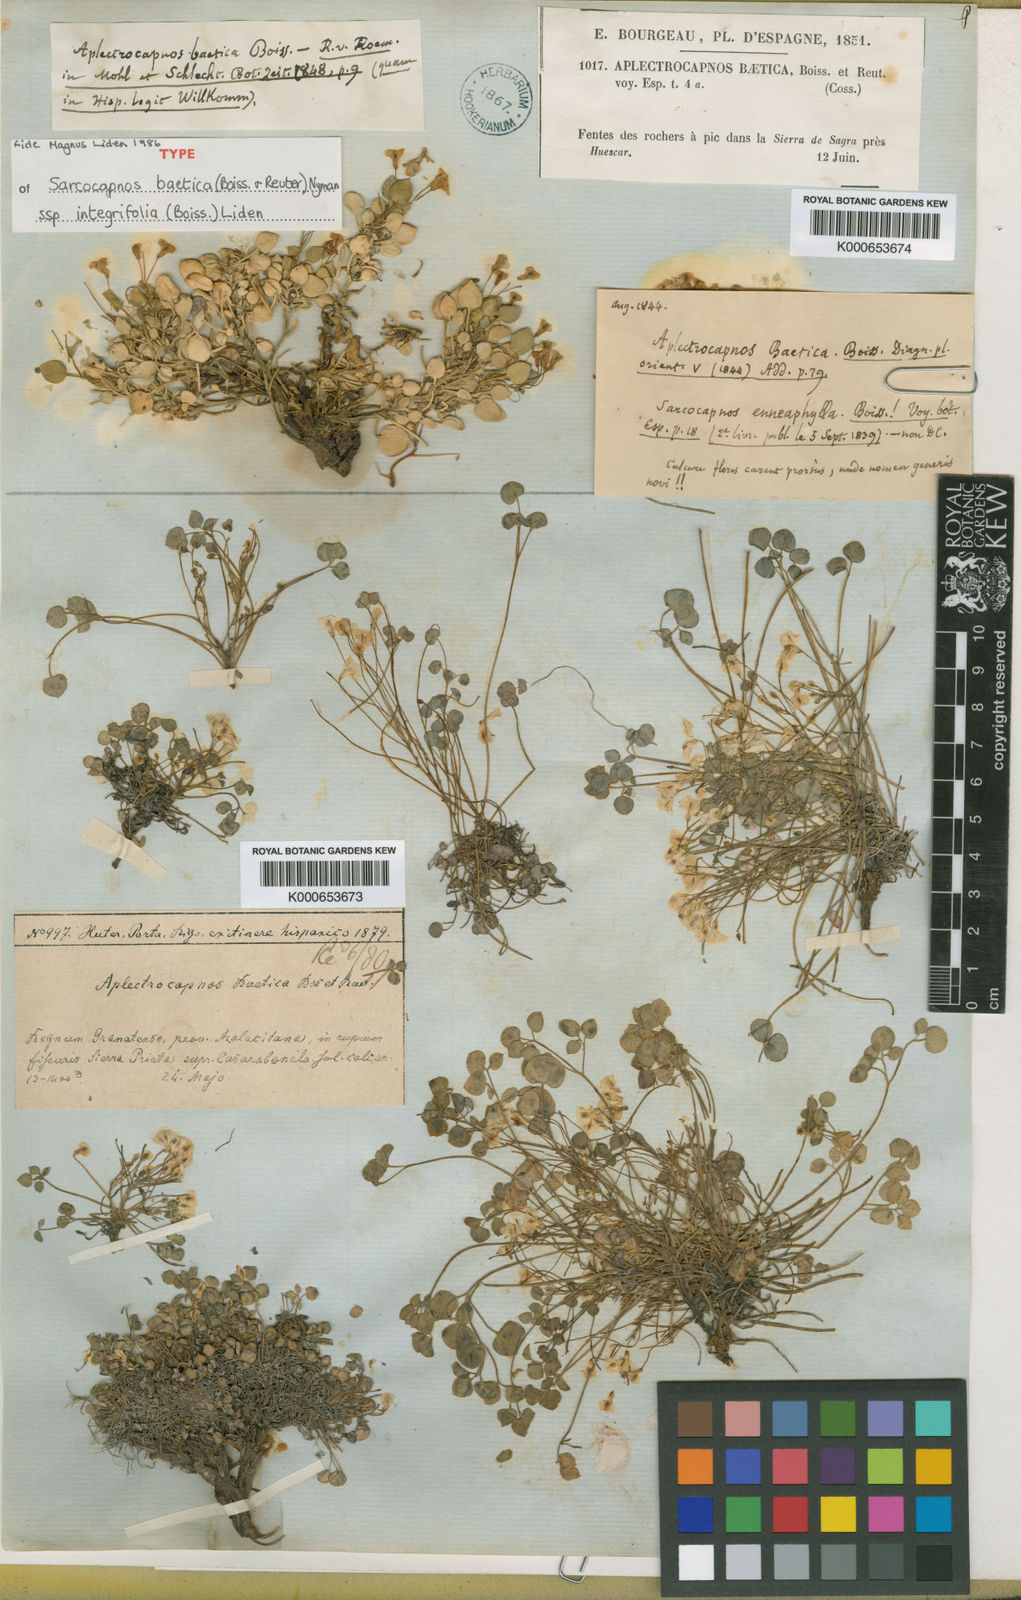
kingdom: Plantae
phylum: Tracheophyta
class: Magnoliopsida
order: Ranunculales
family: Papaveraceae
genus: Sarcocapnos
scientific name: Sarcocapnos baetica
